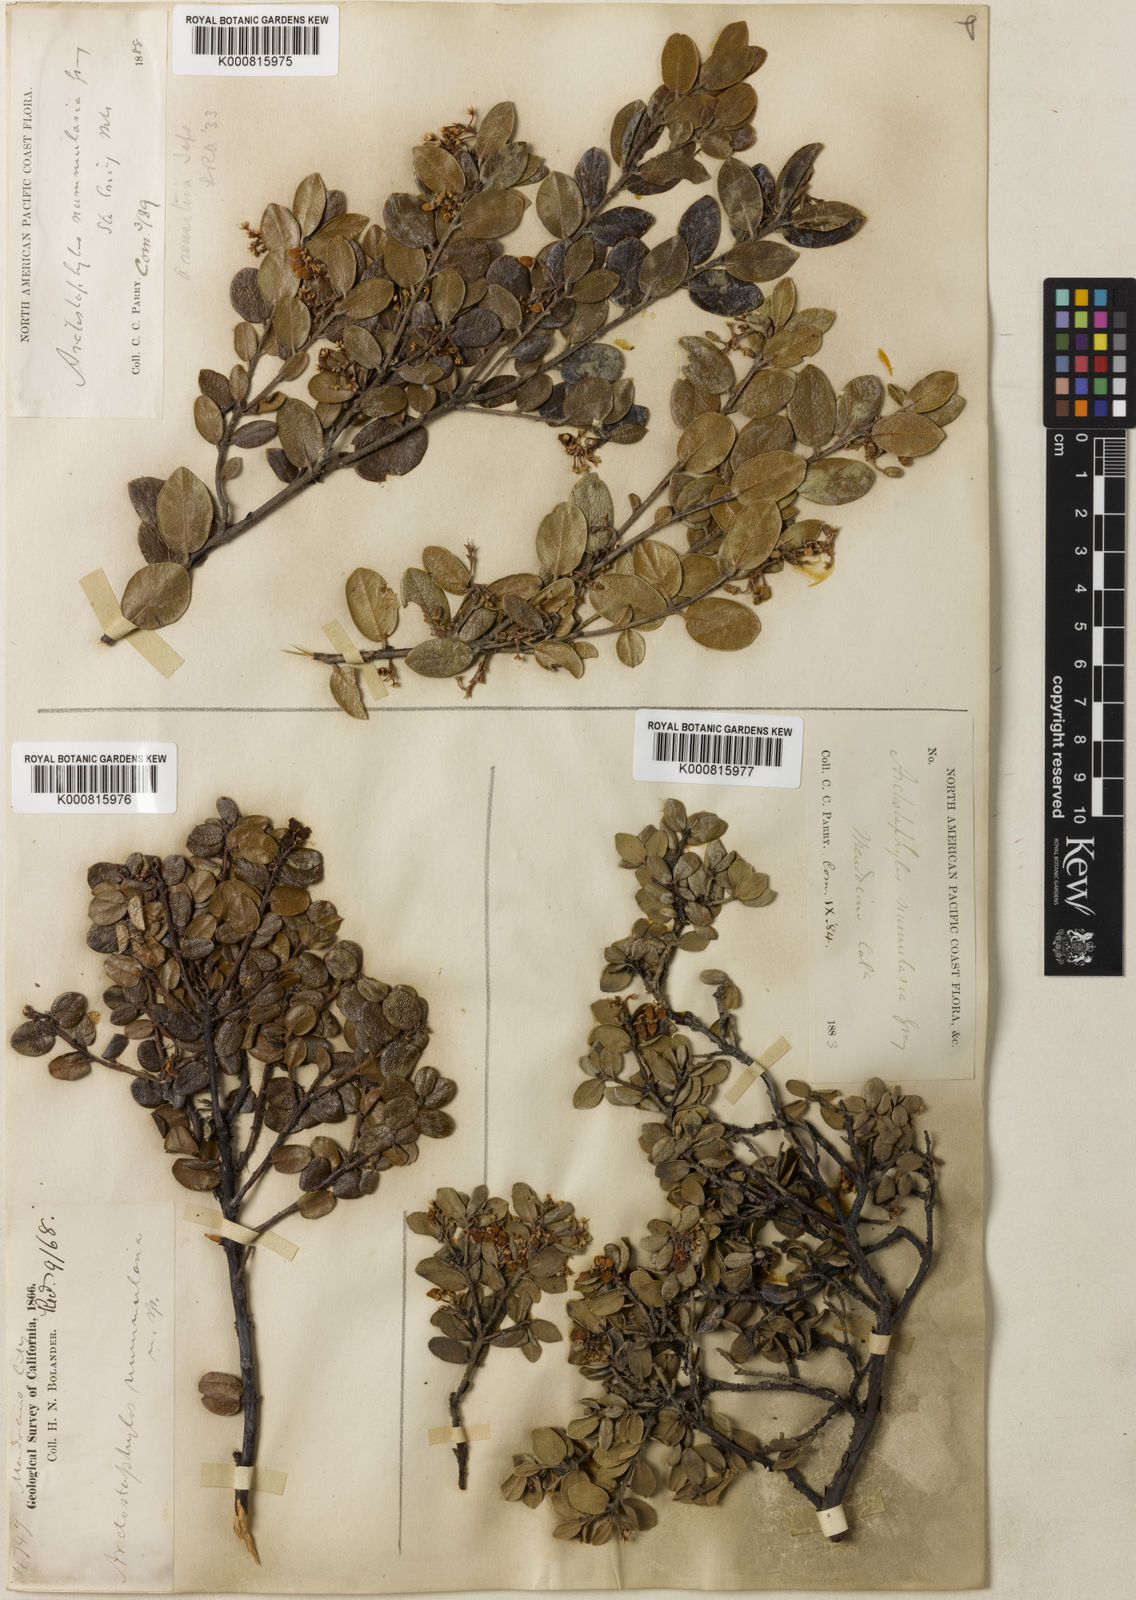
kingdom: Plantae
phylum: Tracheophyta
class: Magnoliopsida
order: Ericales
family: Ericaceae
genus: Arctostaphylos
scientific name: Arctostaphylos nummularia
